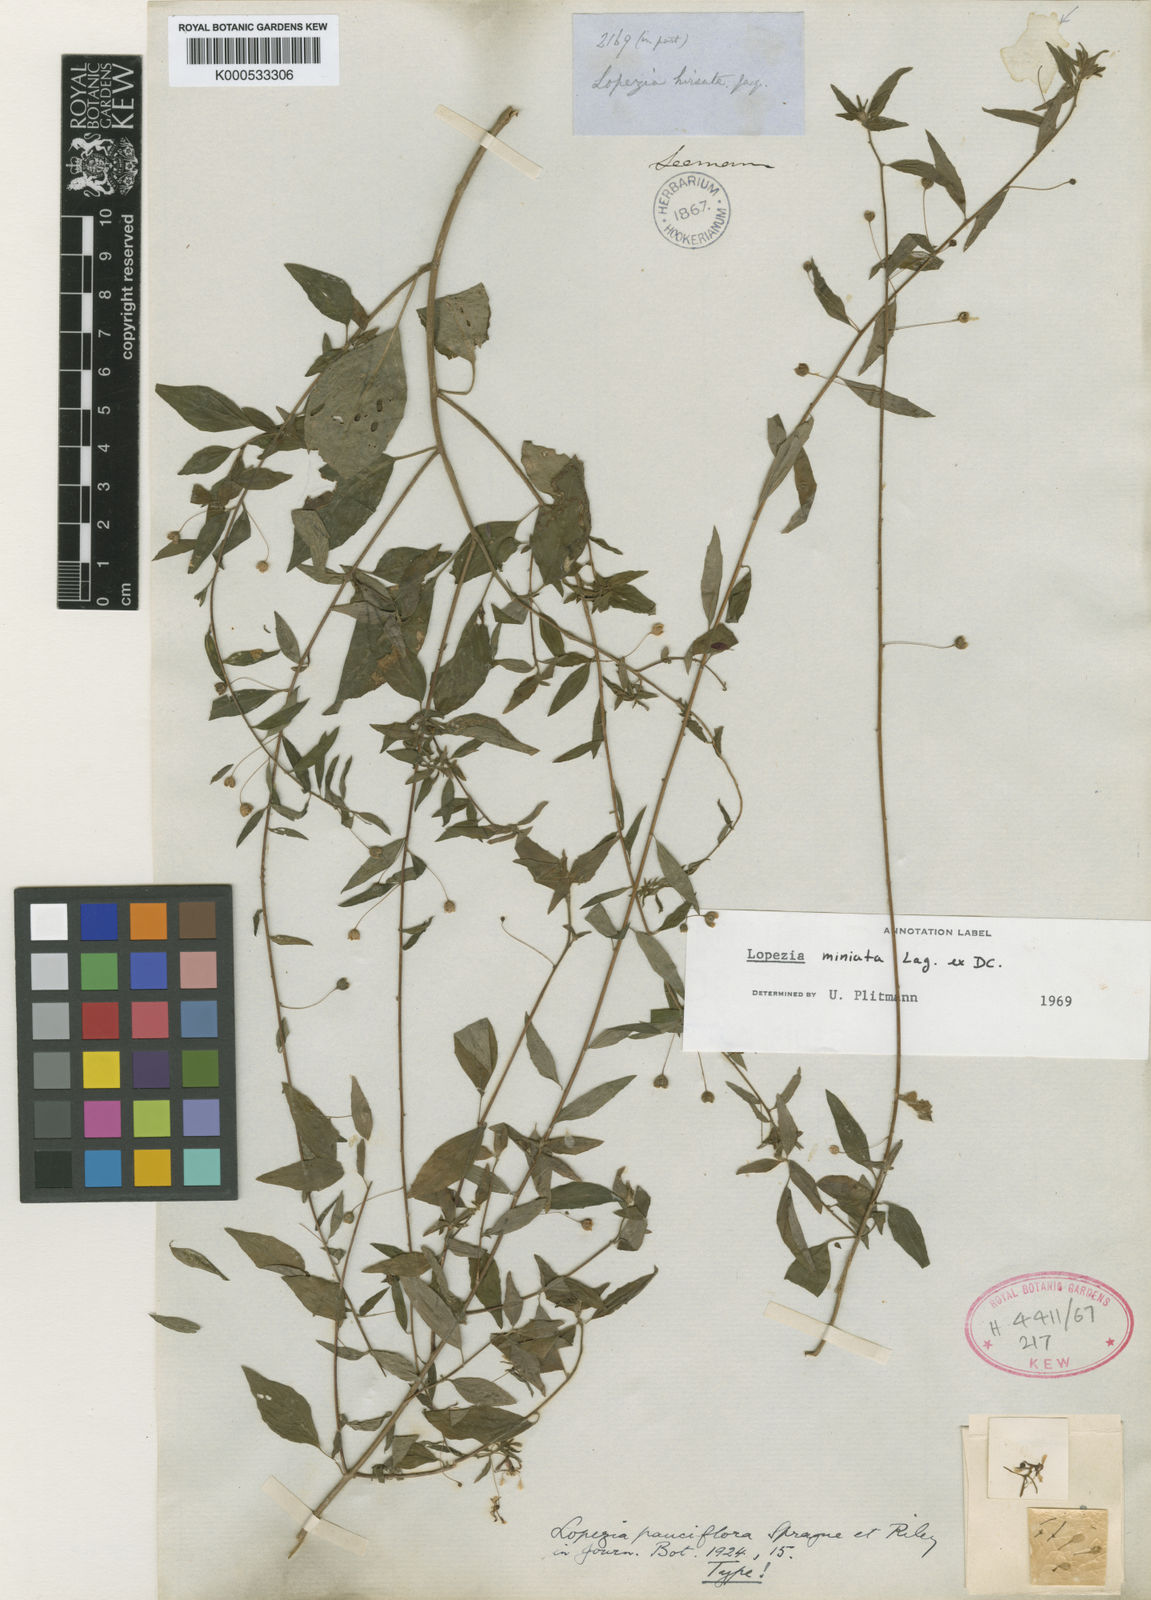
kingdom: Plantae
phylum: Tracheophyta
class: Magnoliopsida
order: Myrtales
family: Onagraceae
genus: Lopezia
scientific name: Lopezia miniata
